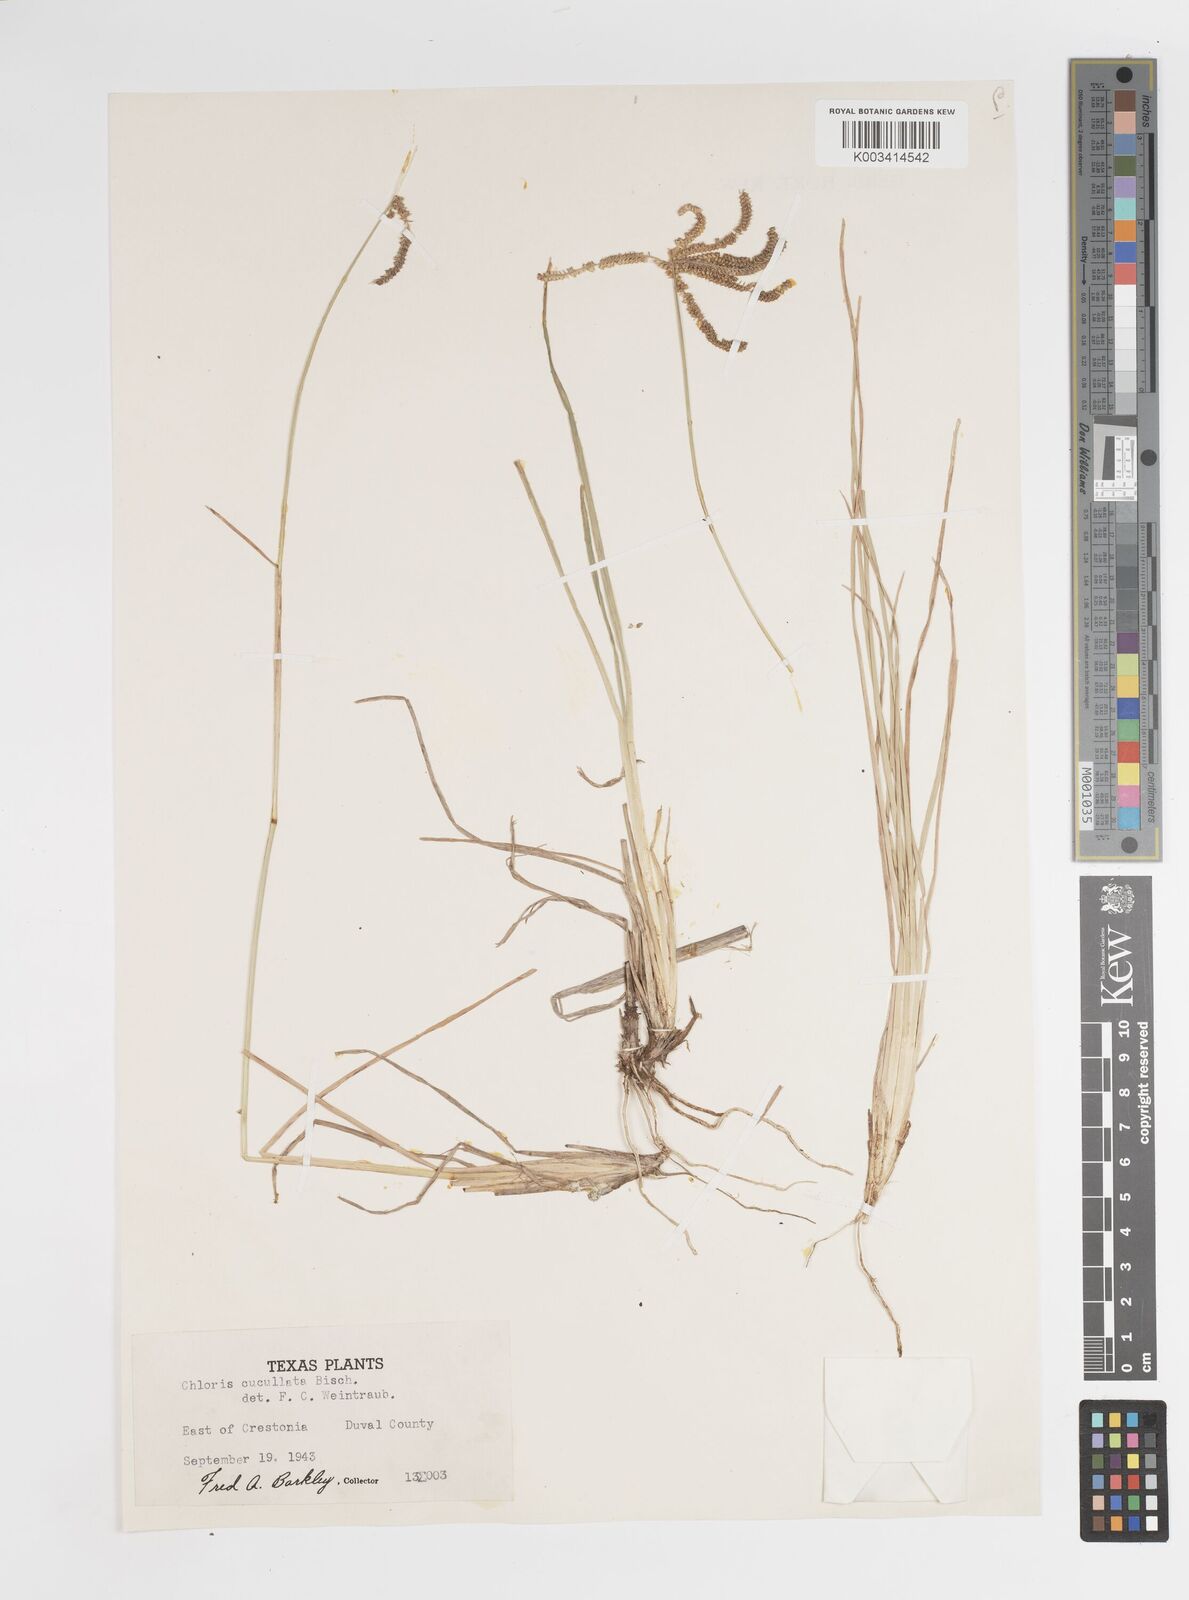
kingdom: Plantae
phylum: Tracheophyta
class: Liliopsida
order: Poales
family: Poaceae
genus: Chloris
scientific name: Chloris cucullata
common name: Hooded windmill grass
